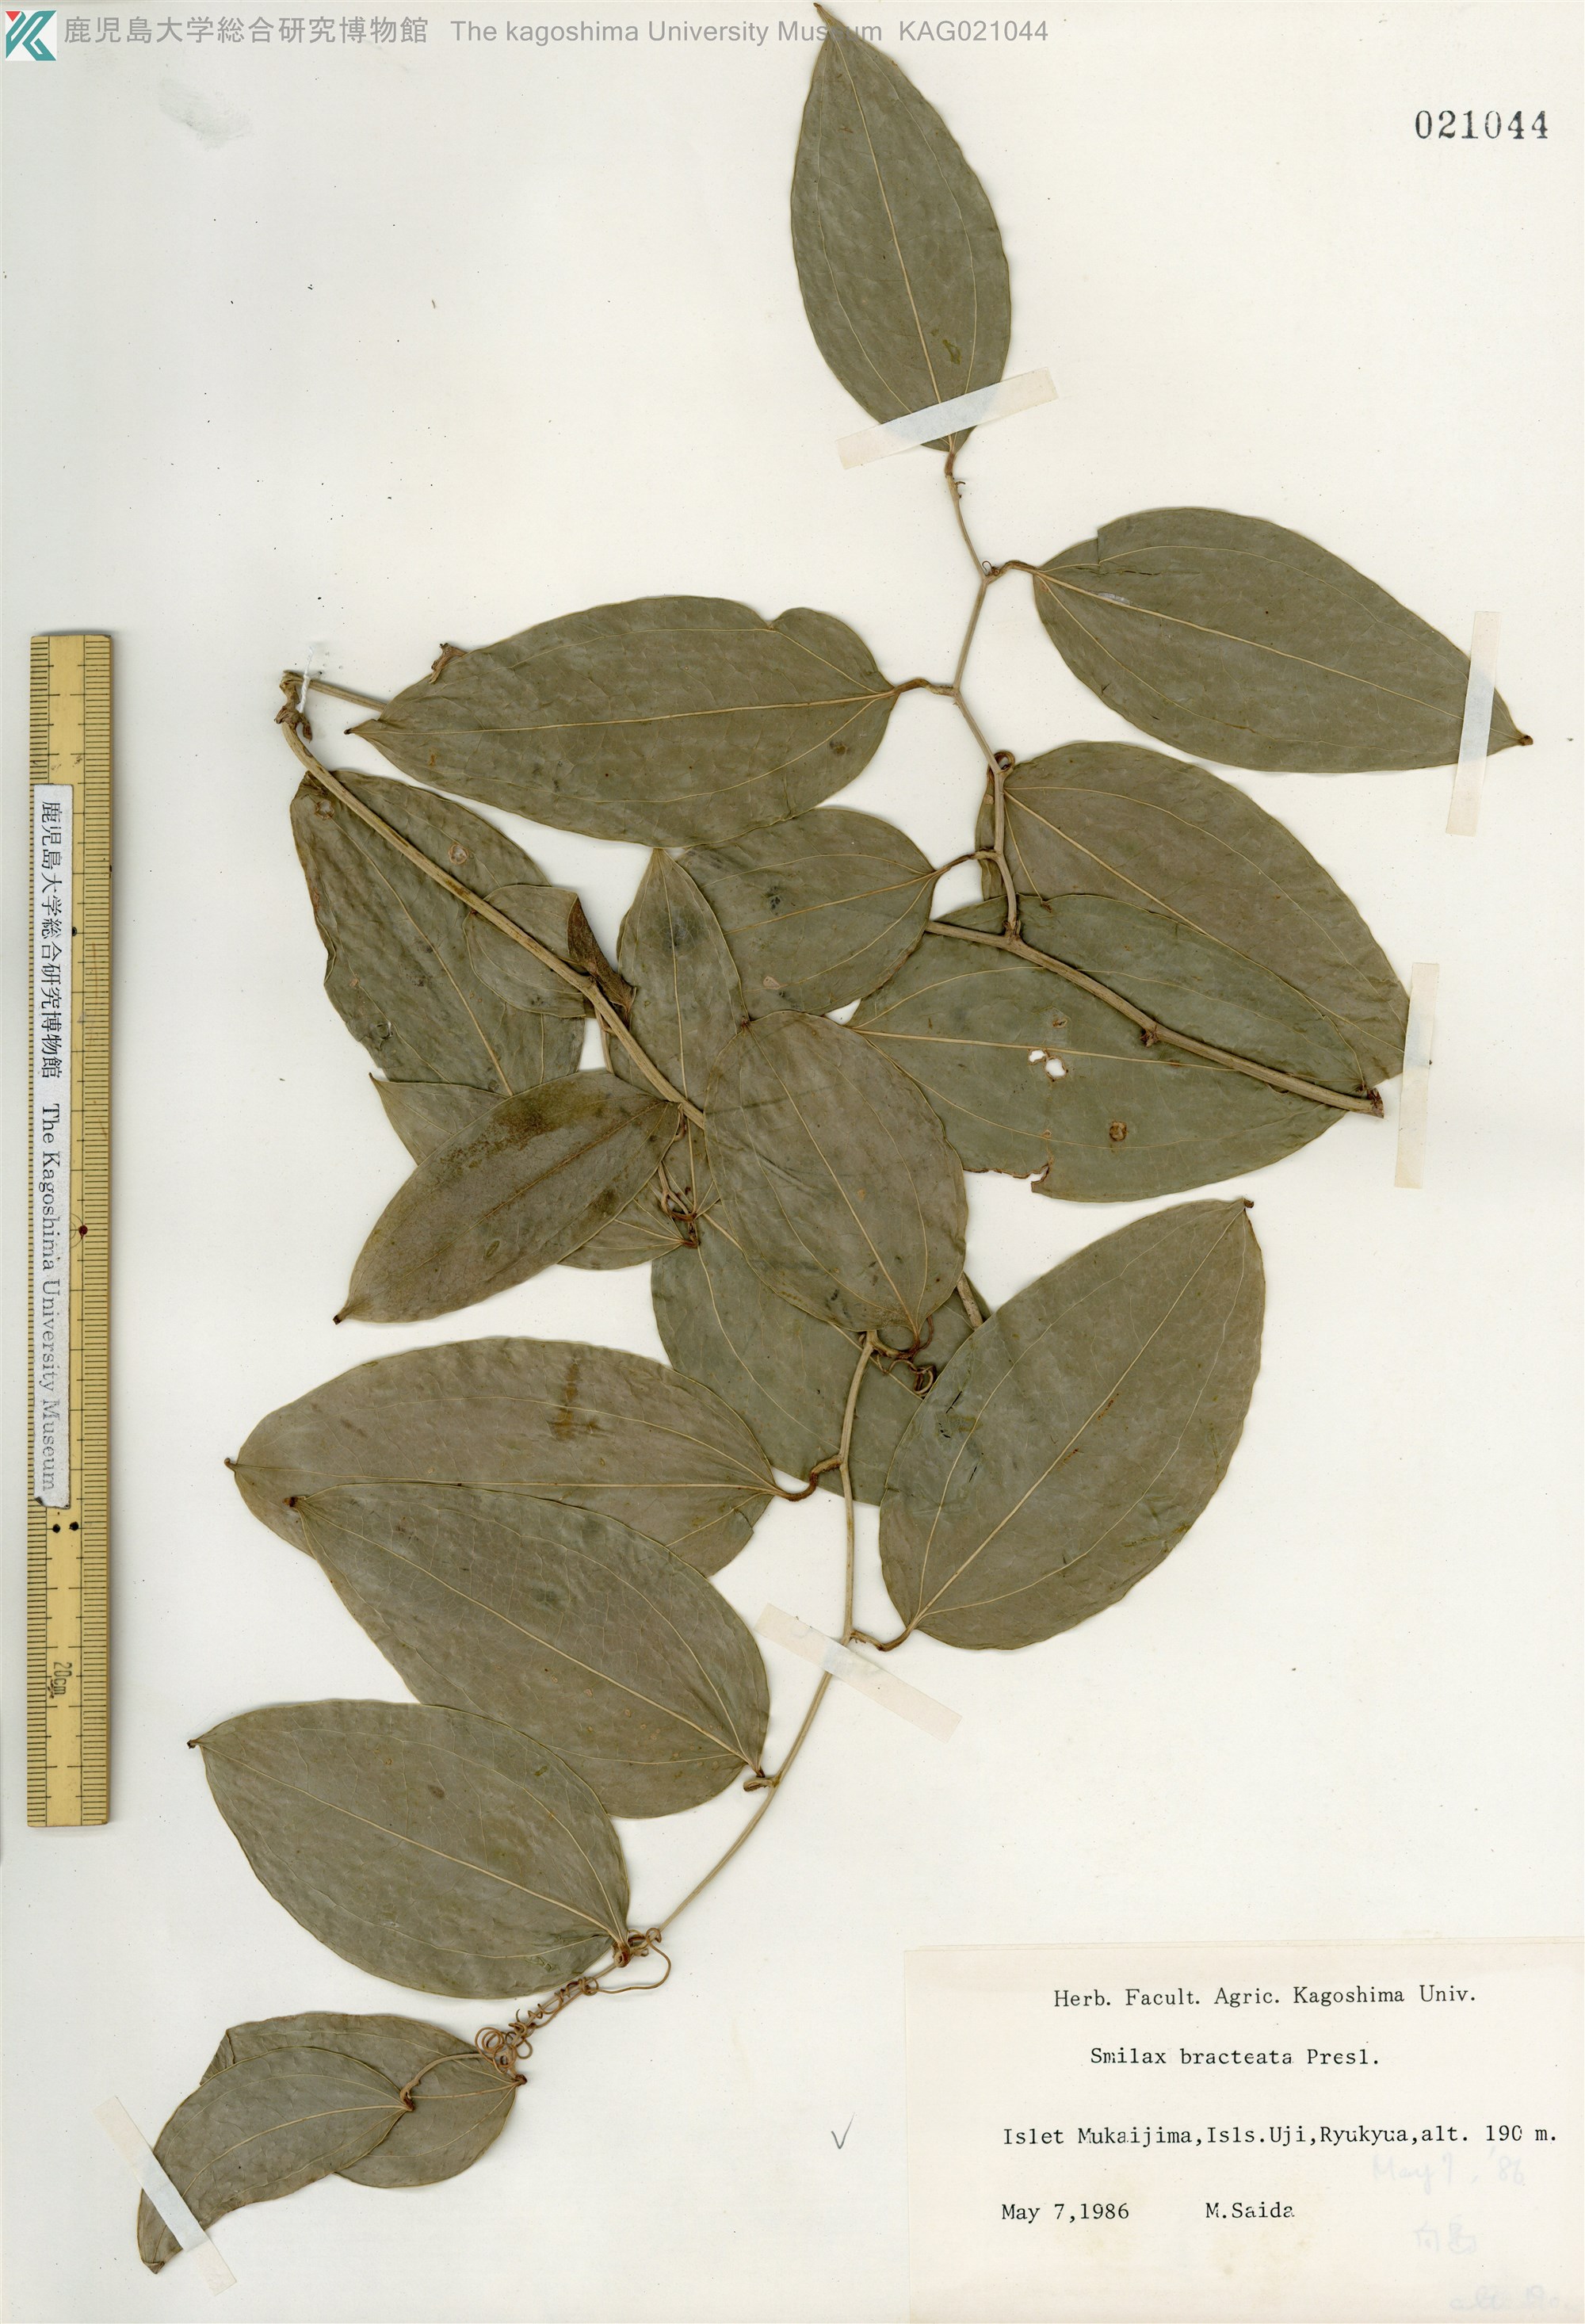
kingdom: Plantae
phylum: Tracheophyta
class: Liliopsida
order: Liliales
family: Smilacaceae
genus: Smilax
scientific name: Smilax bracteata
